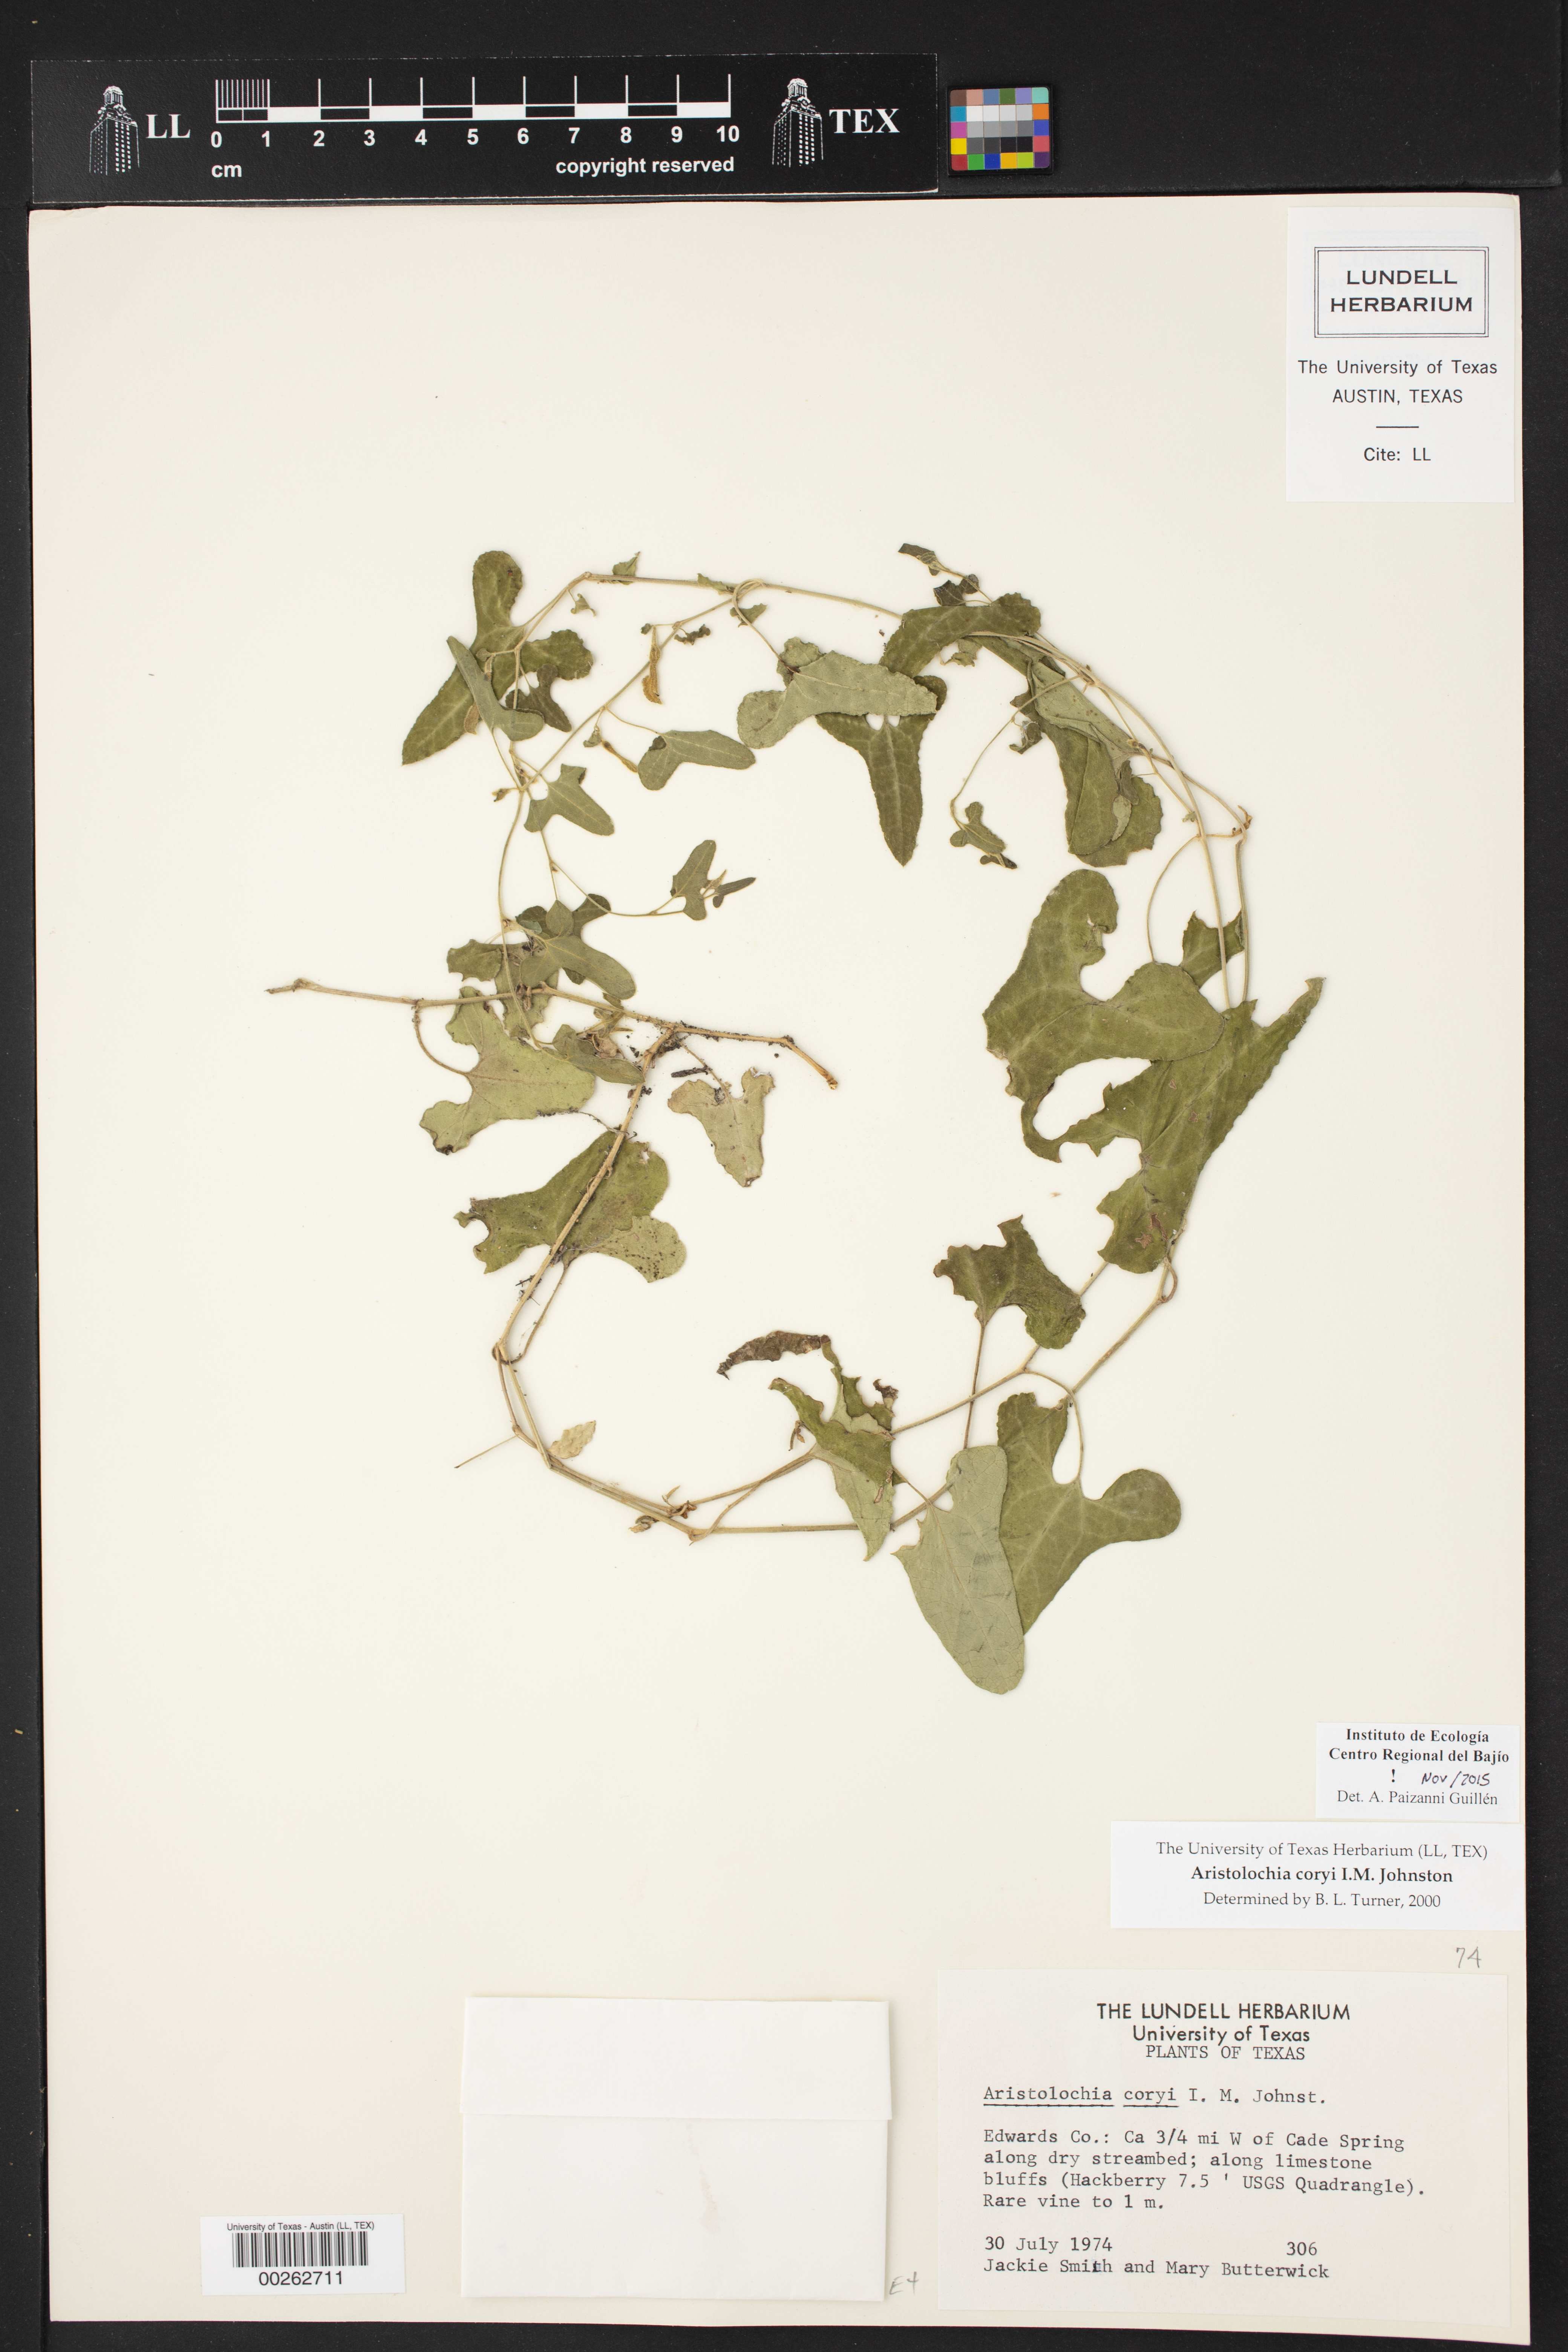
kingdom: Plantae
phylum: Tracheophyta
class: Magnoliopsida
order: Piperales
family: Aristolochiaceae
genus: Aristolochia
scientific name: Aristolochia coryi
